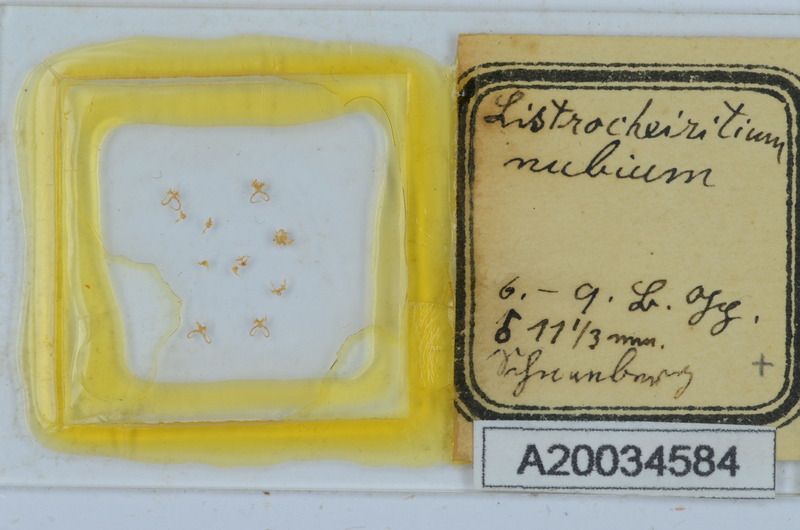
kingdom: Animalia
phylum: Arthropoda
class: Diplopoda
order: Chordeumatida
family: Craspedosomatidae
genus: Listrocheiritium
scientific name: Listrocheiritium nubium
